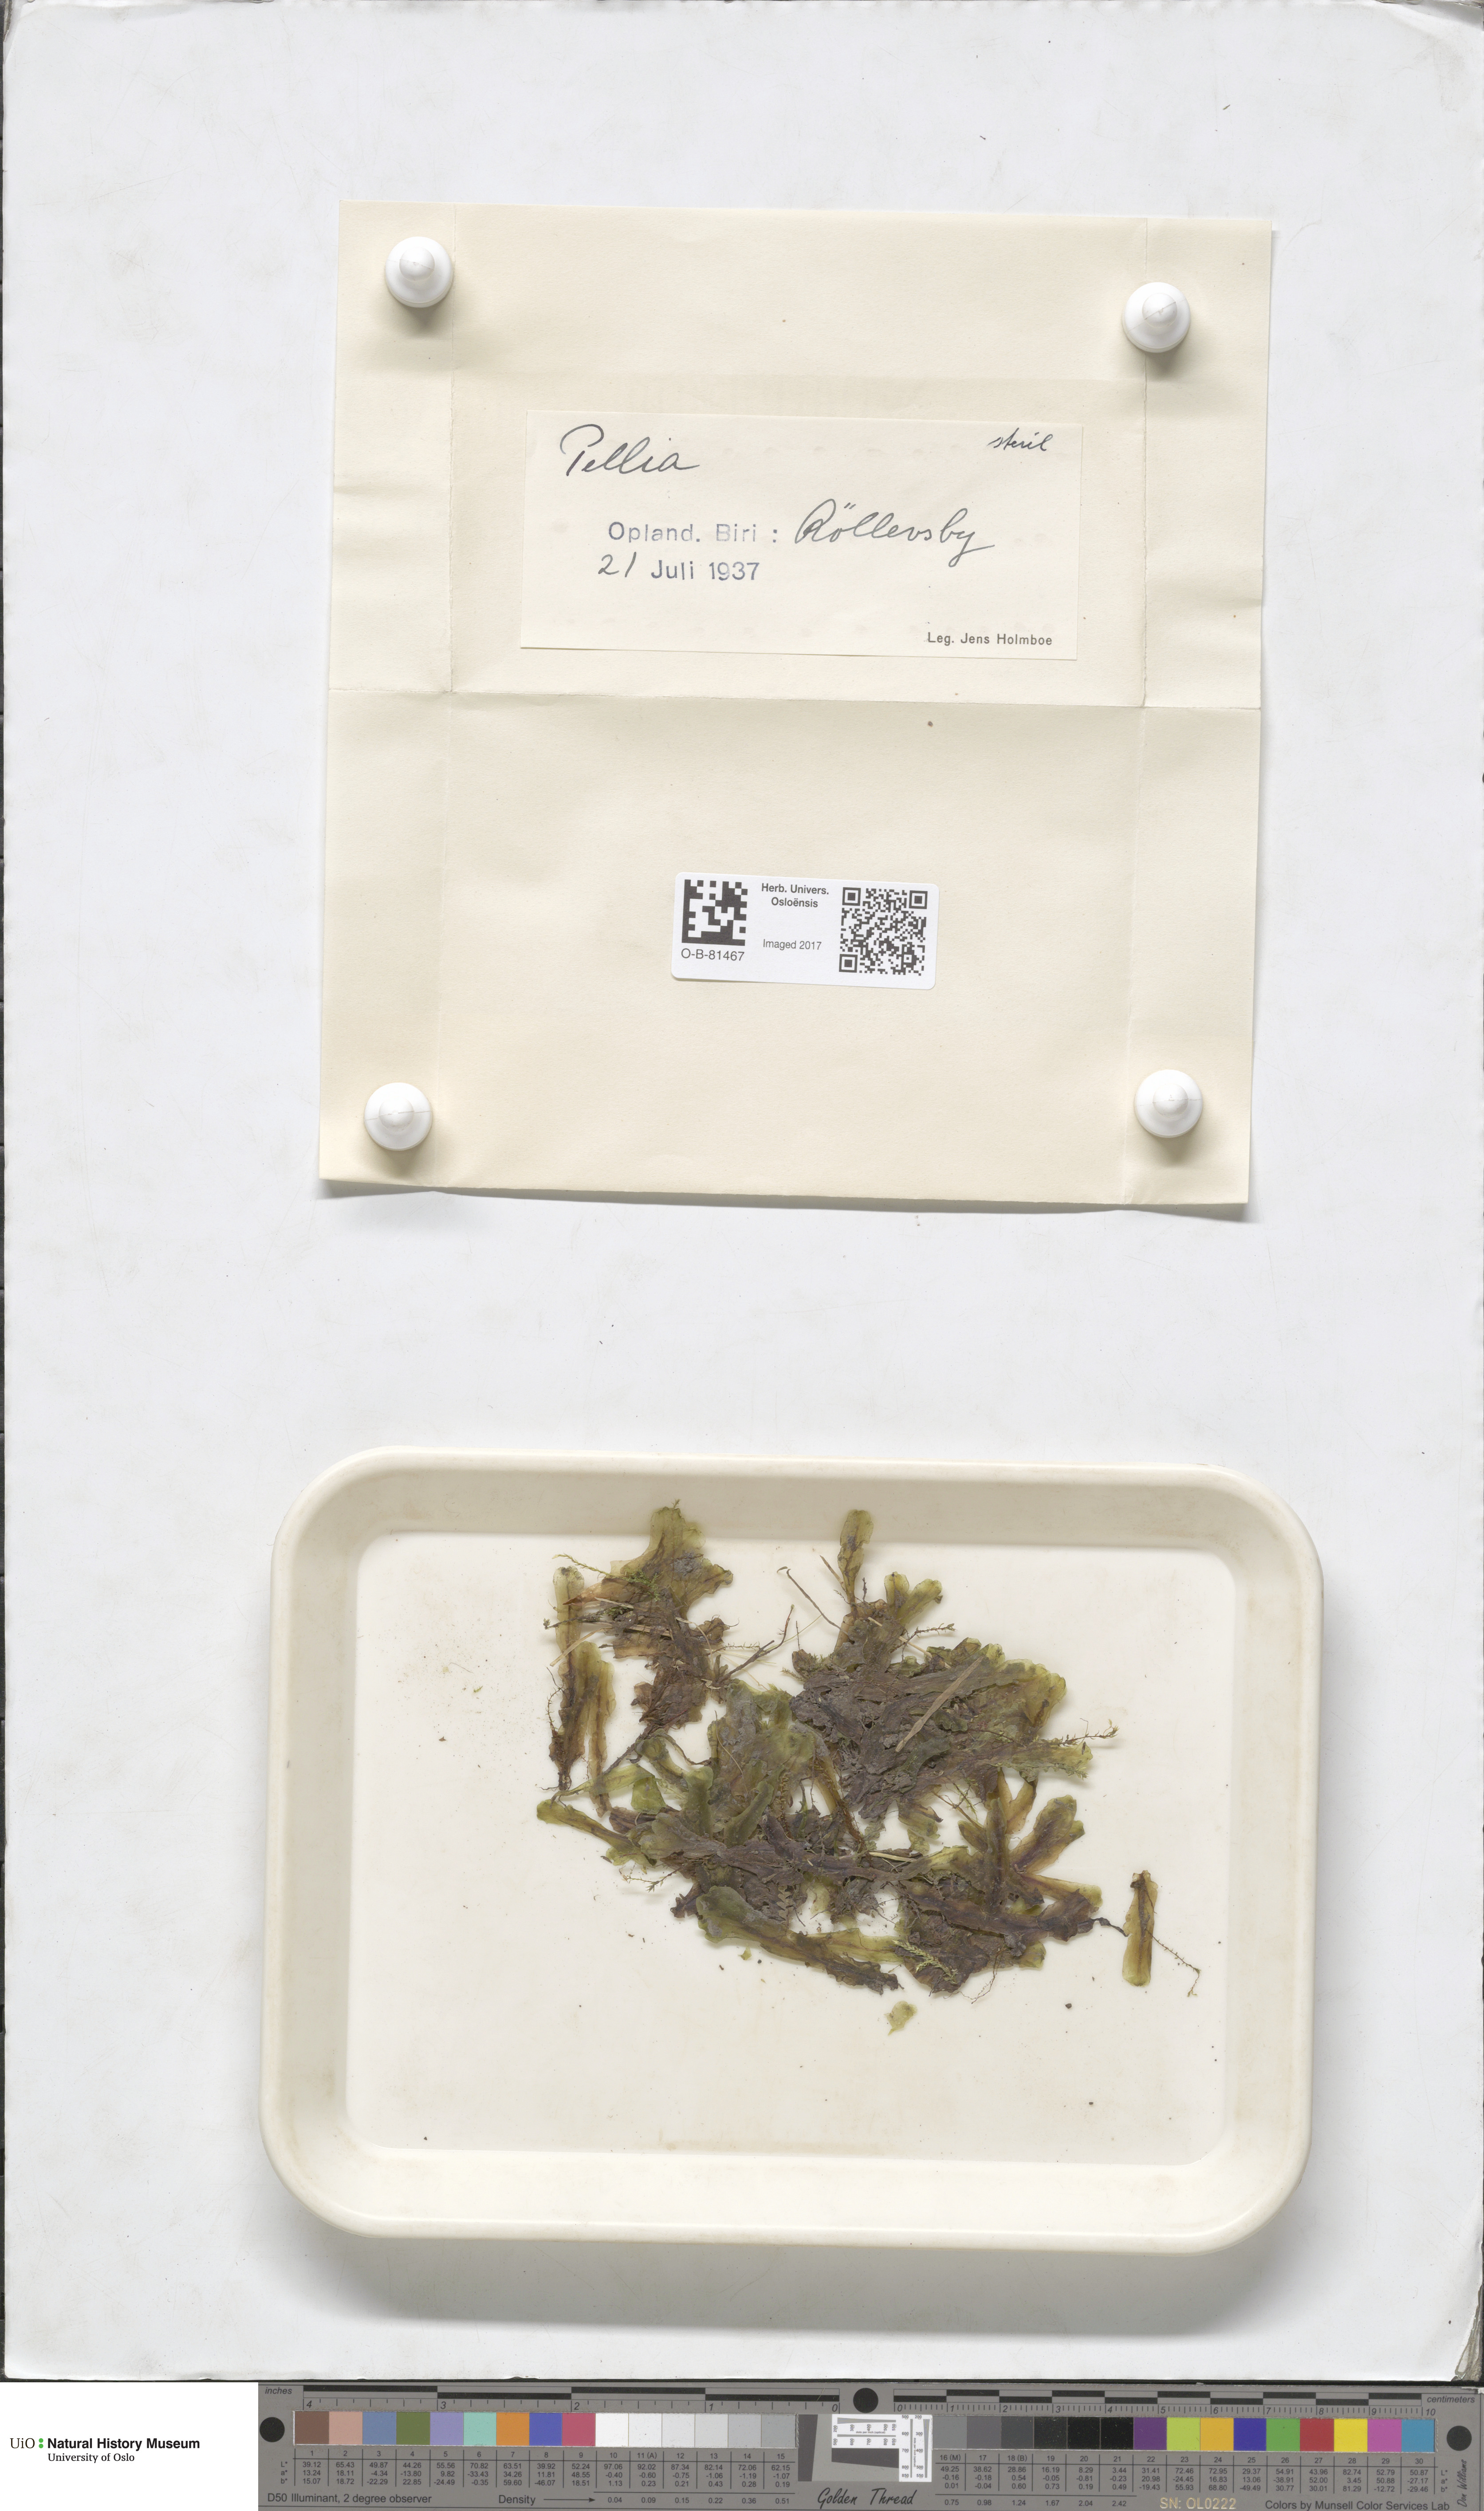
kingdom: Plantae
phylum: Marchantiophyta
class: Jungermanniopsida
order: Pelliales
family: Pelliaceae
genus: Pellia
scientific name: Pellia
